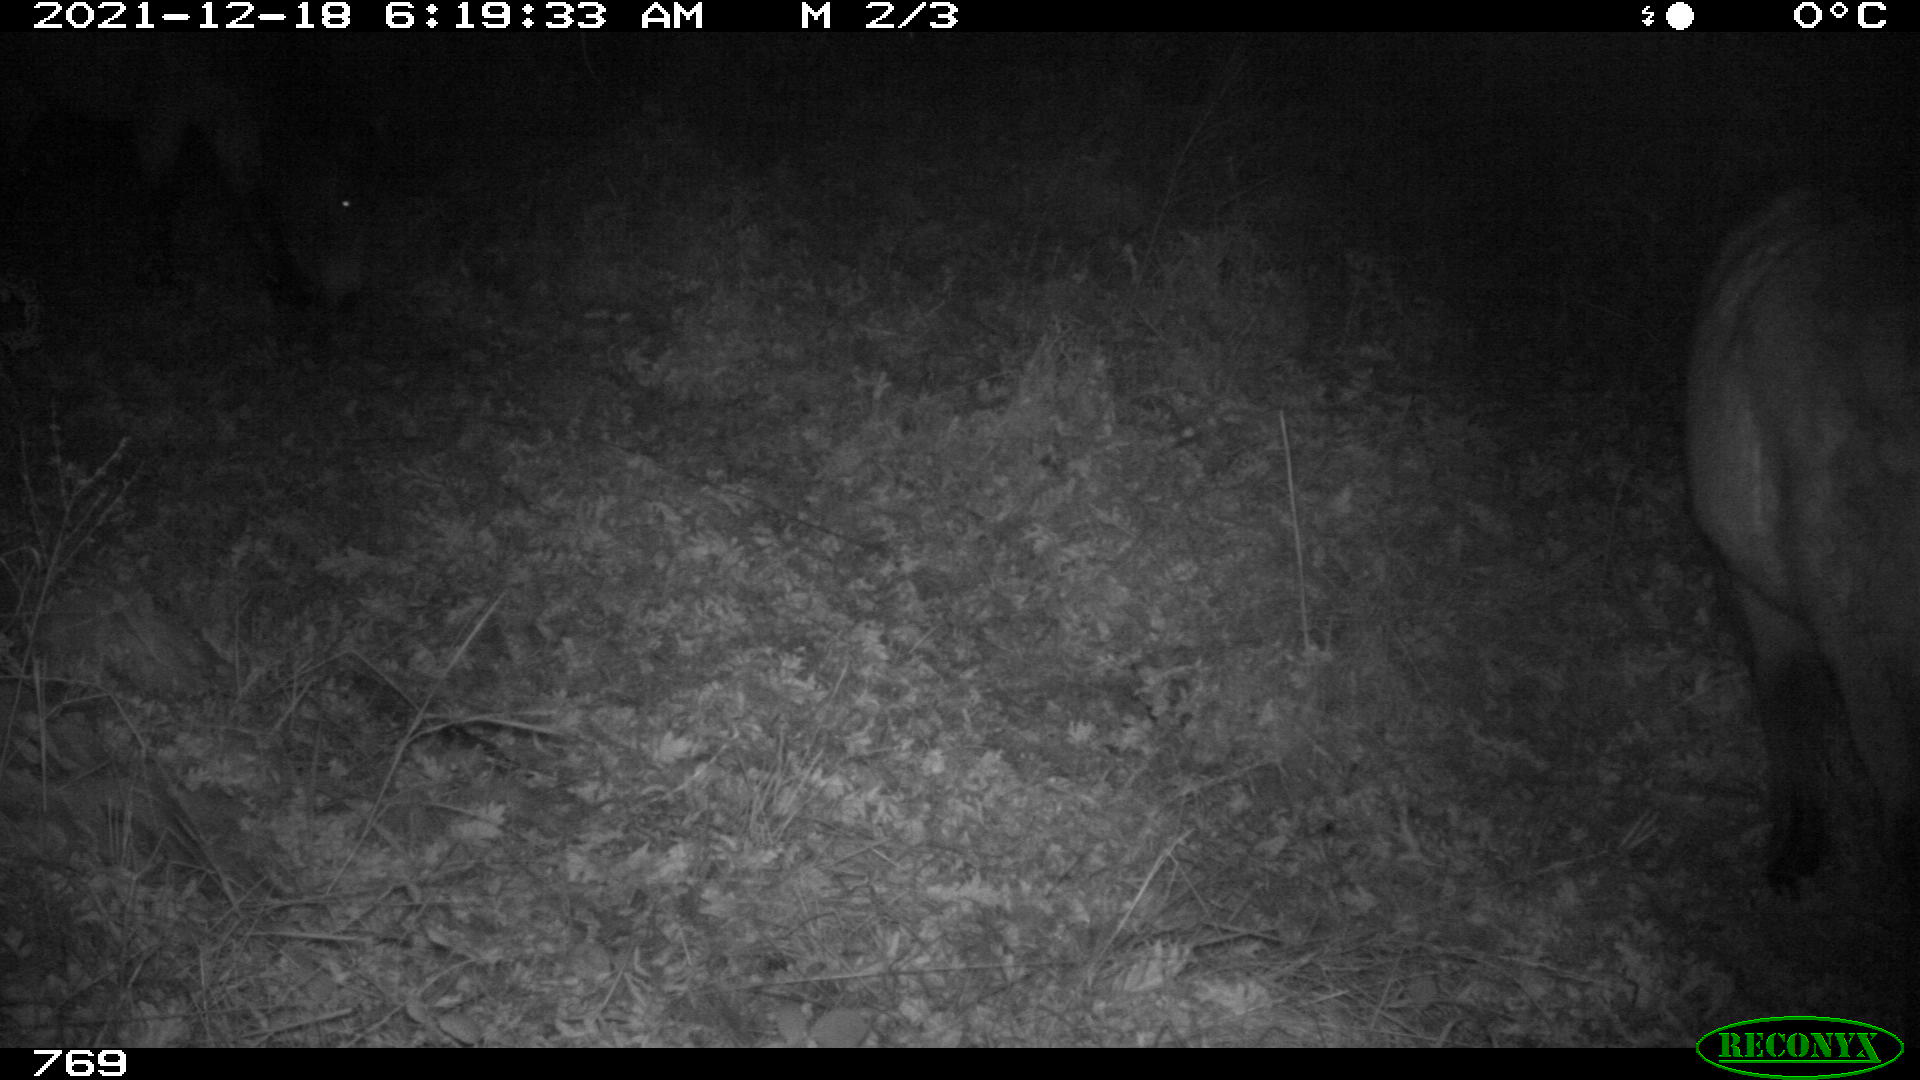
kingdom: Animalia
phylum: Chordata
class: Mammalia
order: Perissodactyla
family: Equidae
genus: Equus
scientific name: Equus caballus
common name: Horse
